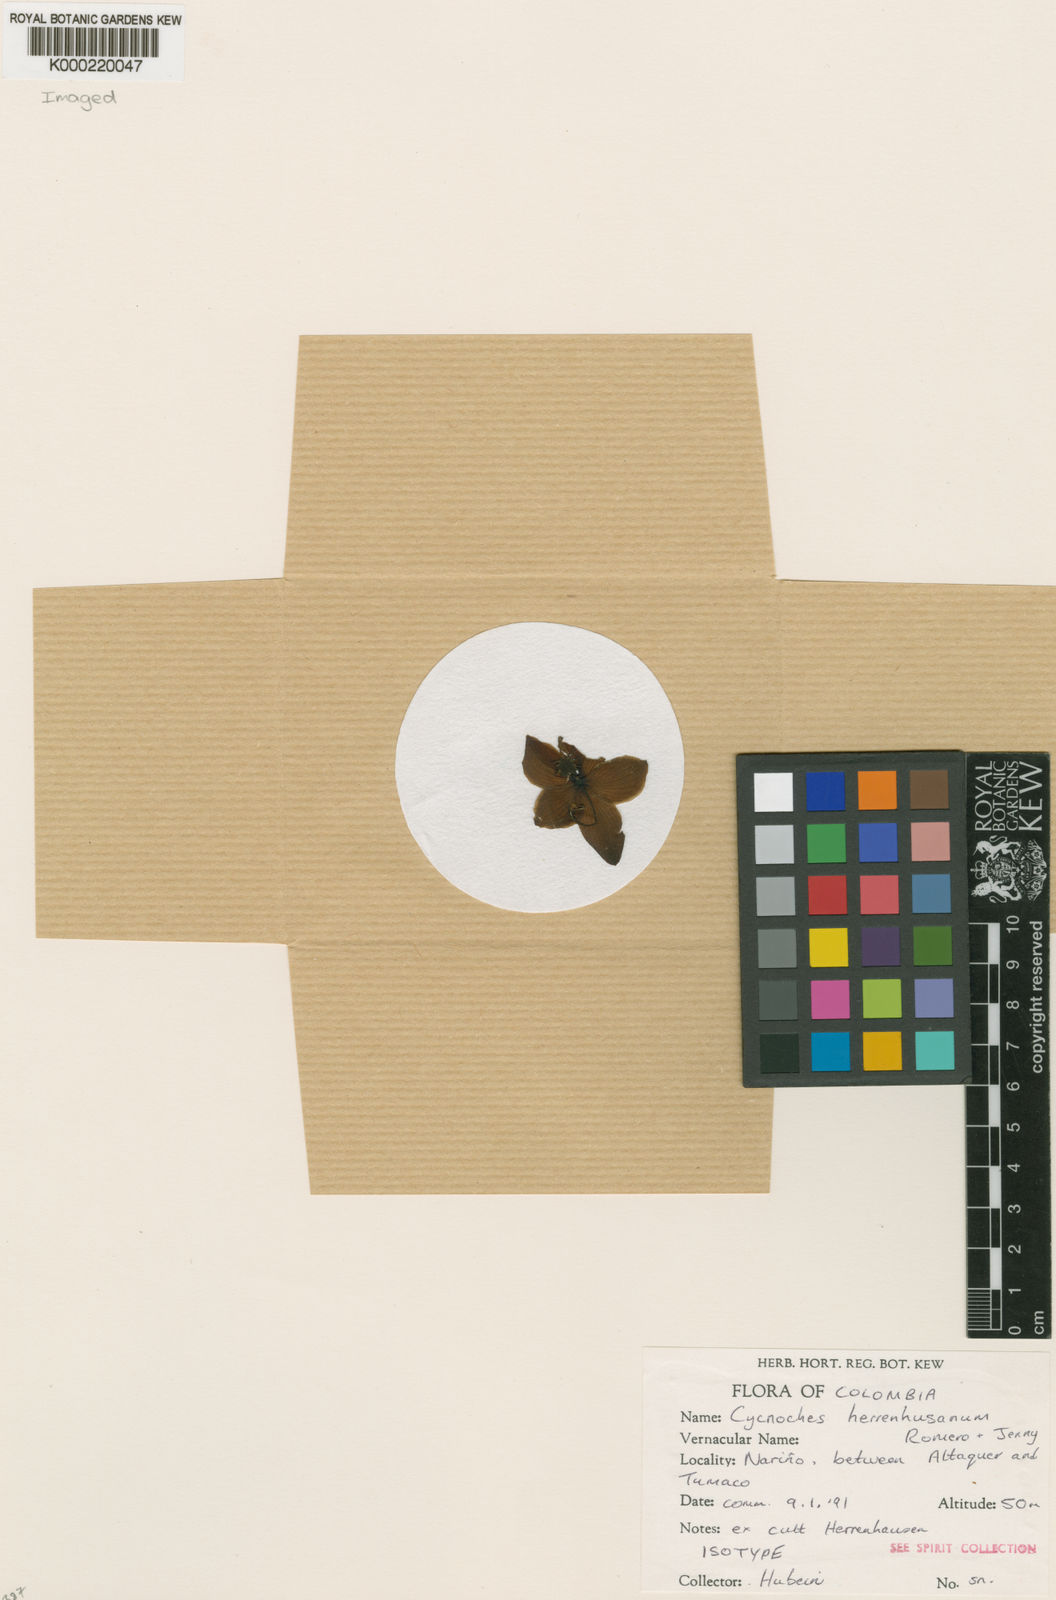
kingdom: Plantae
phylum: Tracheophyta
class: Liliopsida
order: Asparagales
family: Orchidaceae
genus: Cycnoches
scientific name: Cycnoches herrenhusanum
